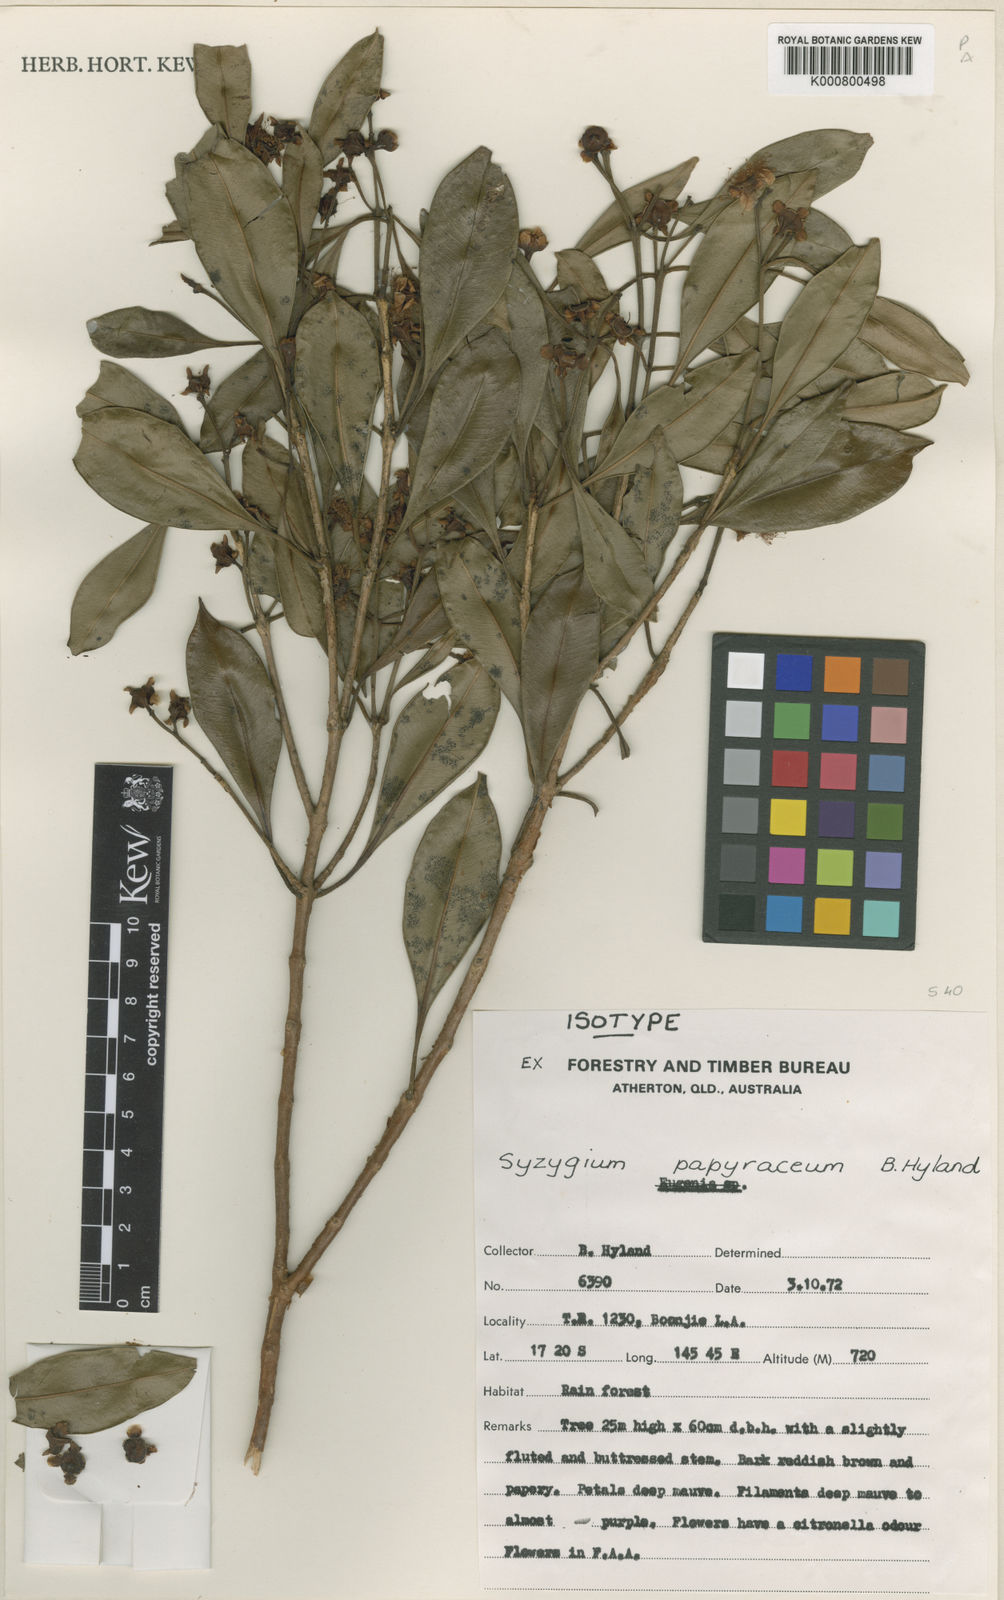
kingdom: Plantae
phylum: Tracheophyta
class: Magnoliopsida
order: Myrtales
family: Myrtaceae
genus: Syzygium
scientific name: Syzygium papyraceum
